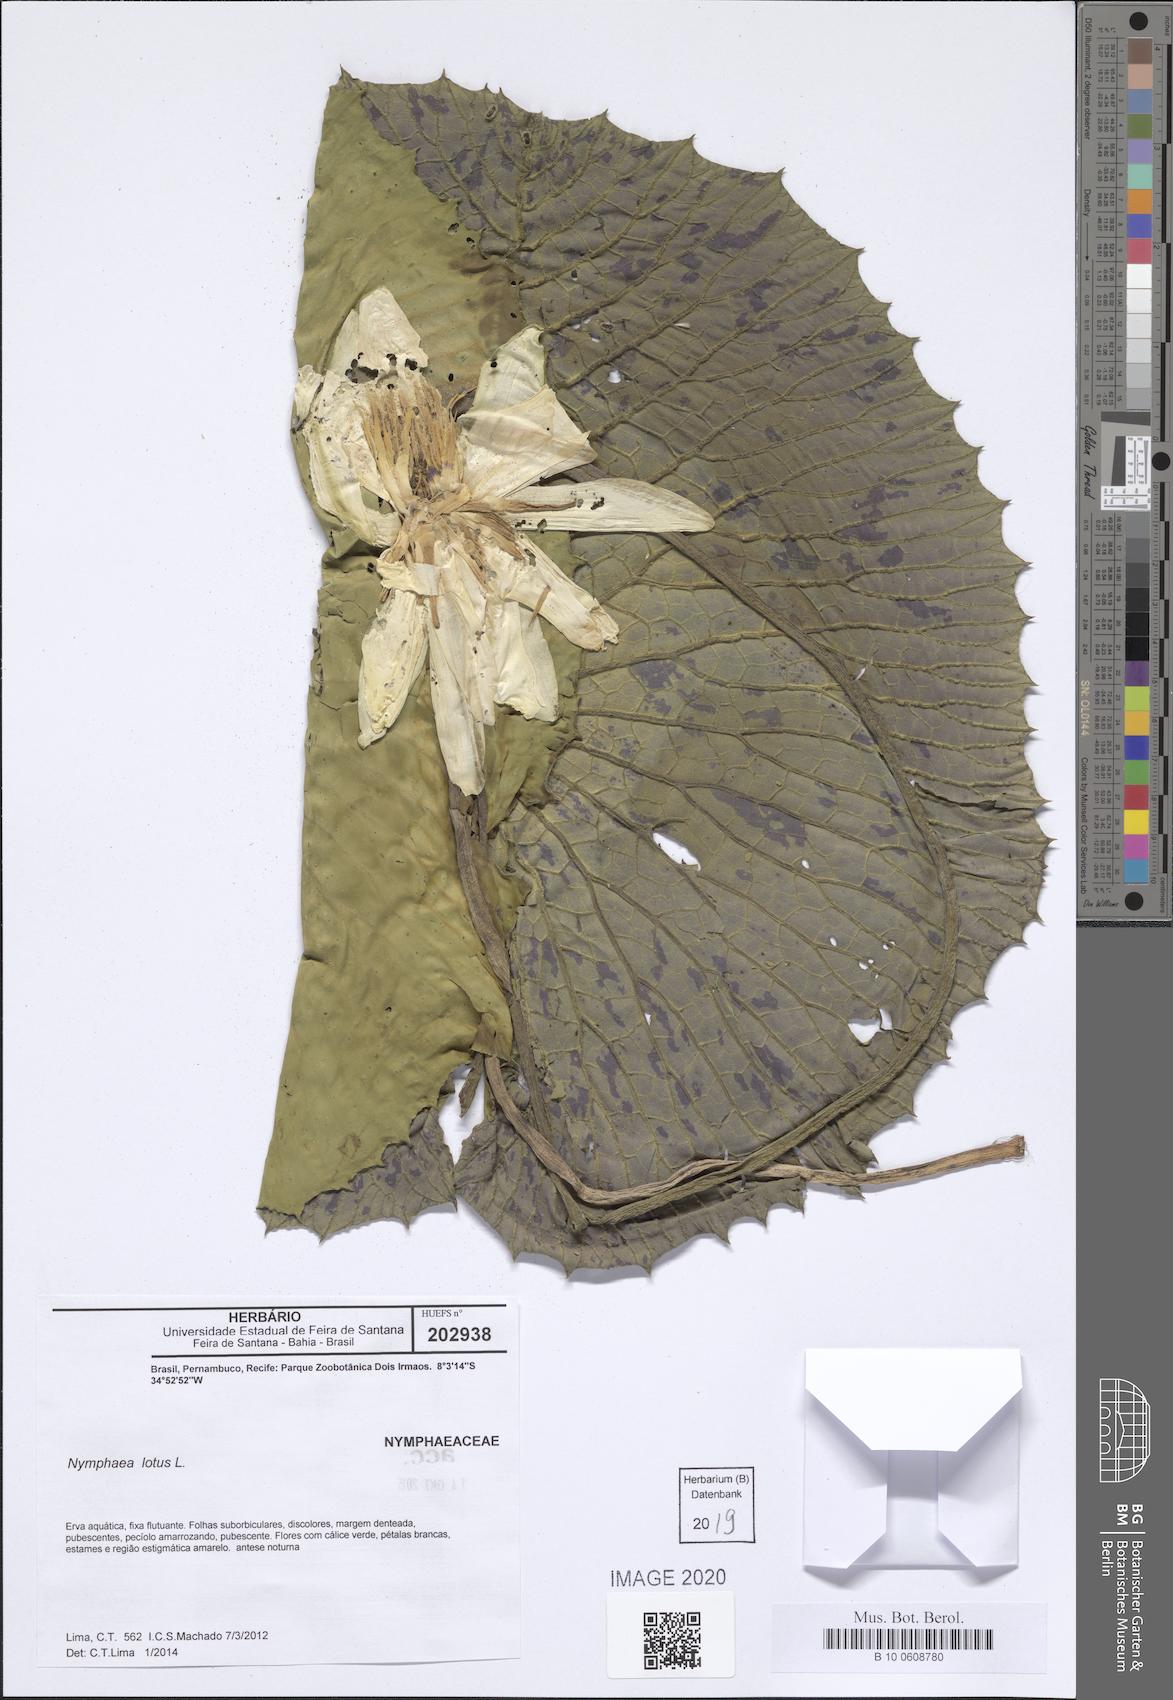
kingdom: Plantae
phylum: Tracheophyta
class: Magnoliopsida
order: Nymphaeales
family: Nymphaeaceae
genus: Nymphaea
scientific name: Nymphaea lotus
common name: White egyptian lotus
